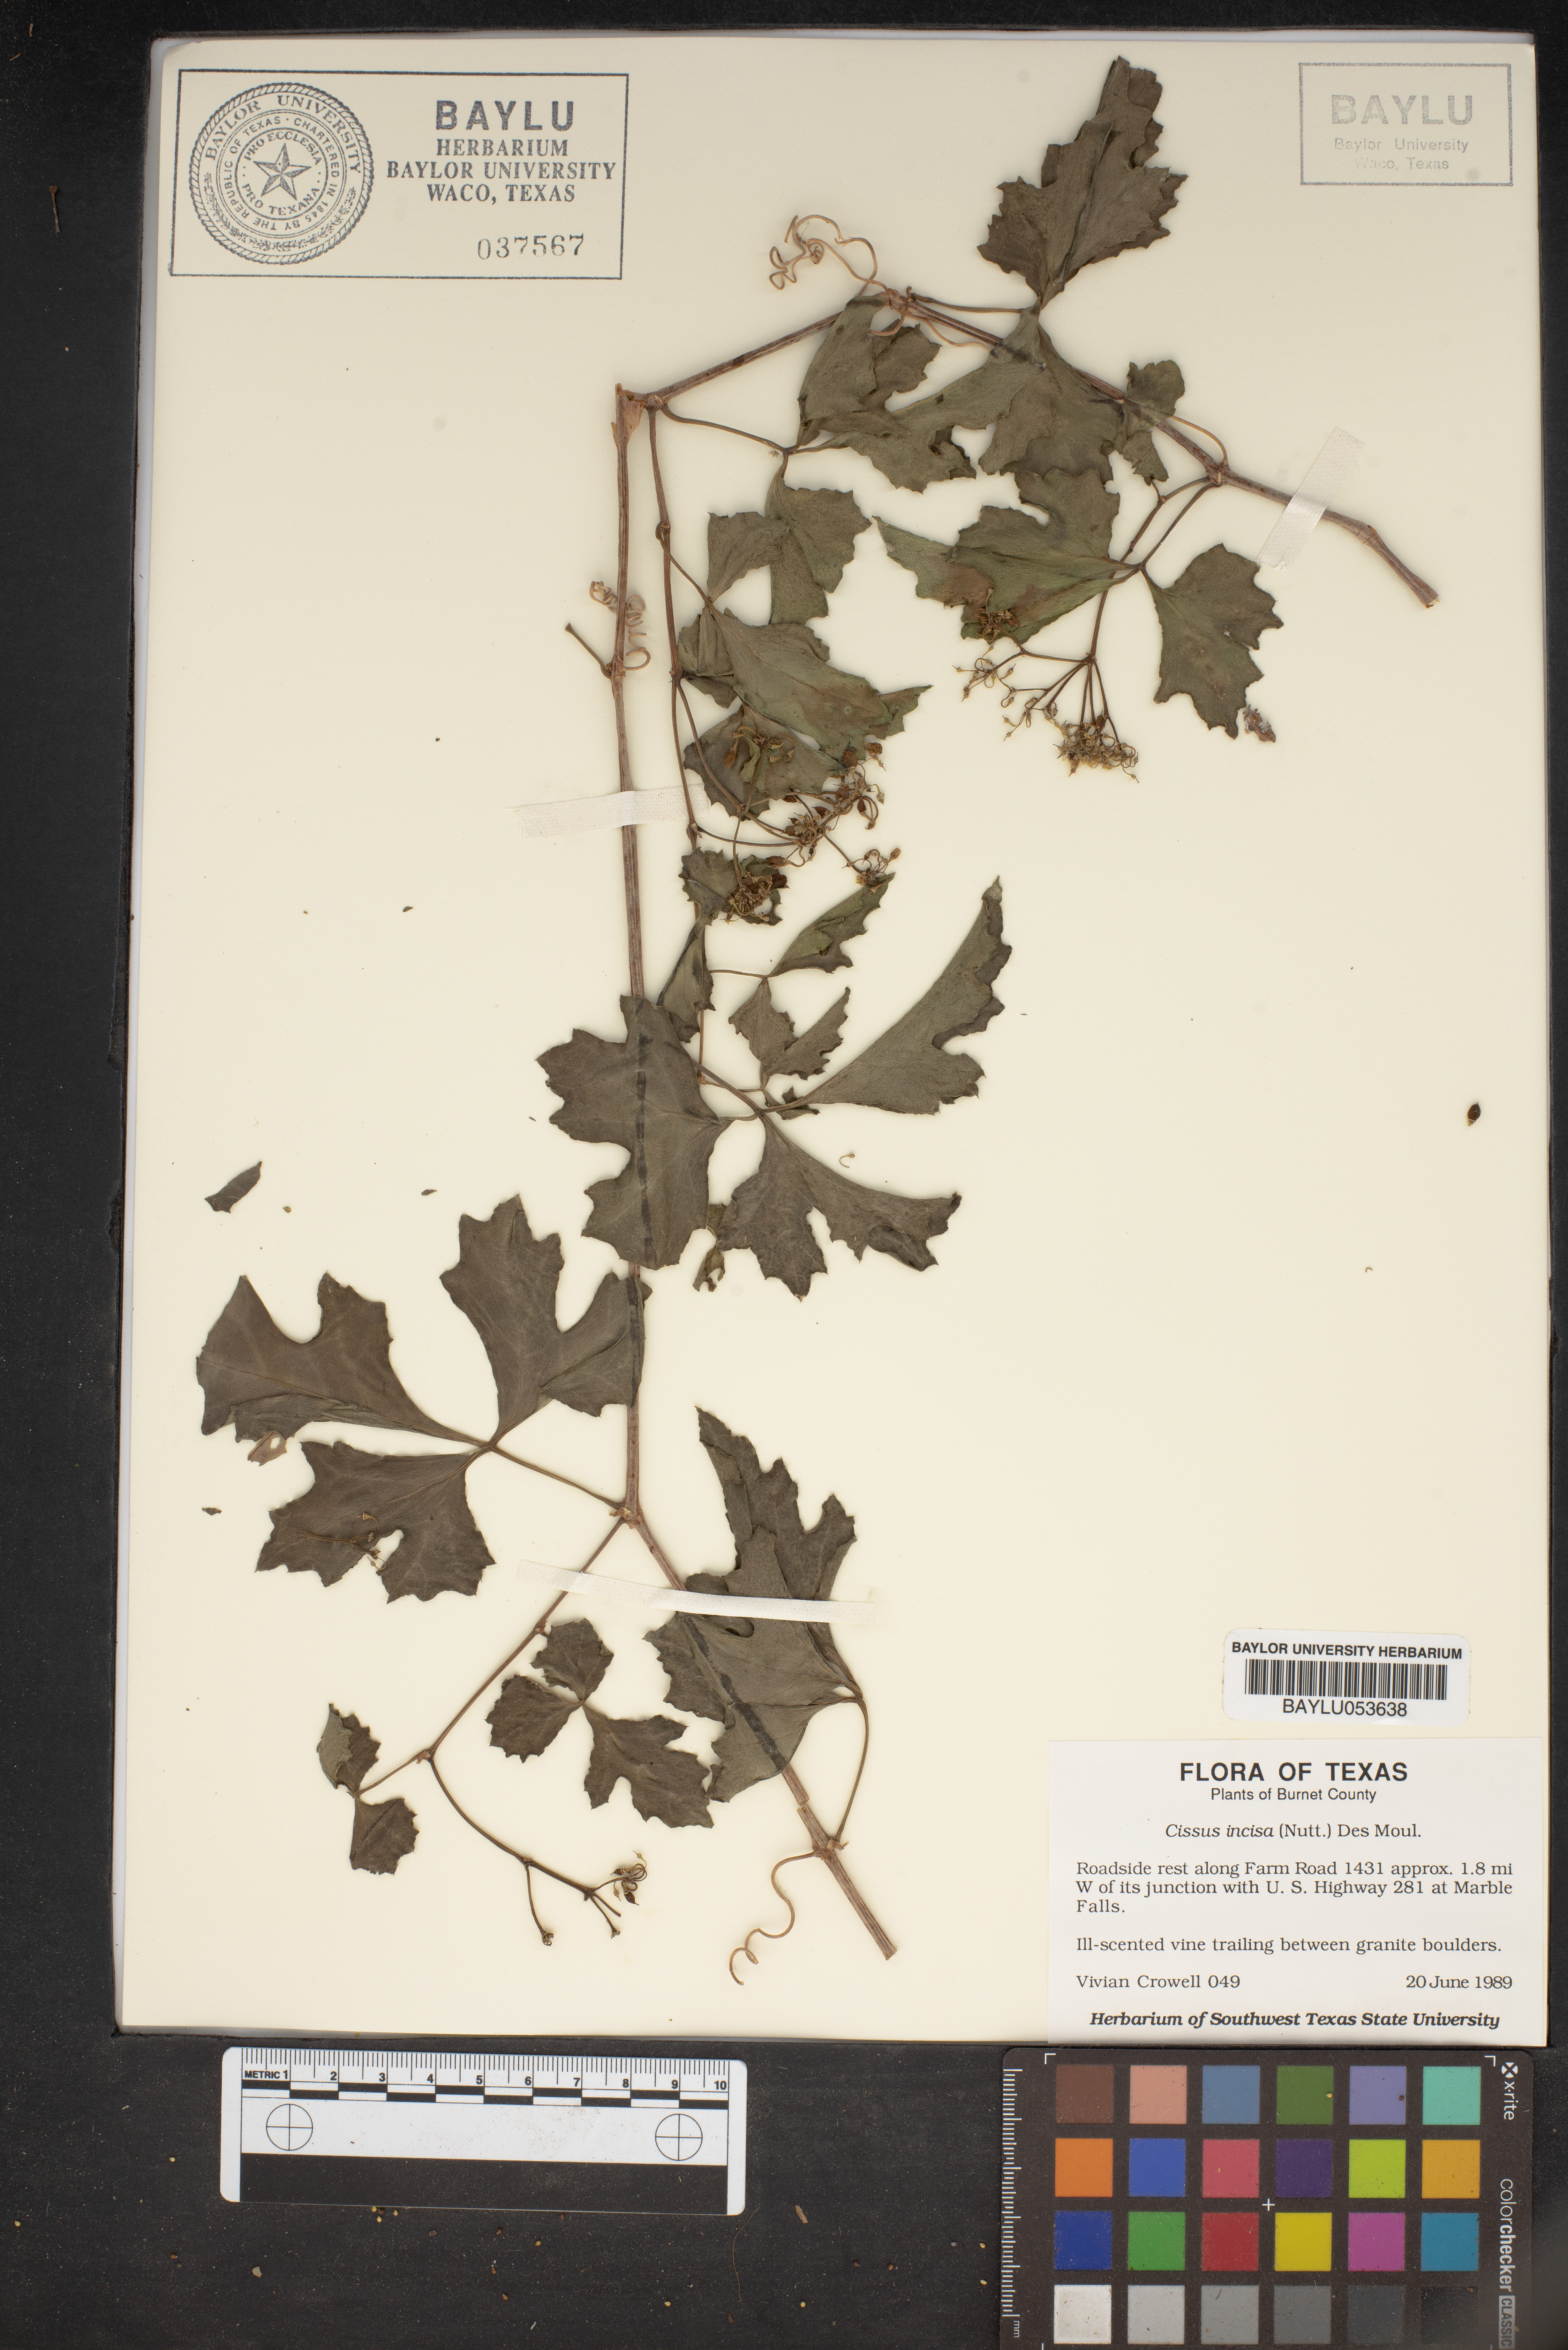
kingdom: Plantae
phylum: Tracheophyta
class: Magnoliopsida
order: Vitales
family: Vitaceae
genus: Cissus
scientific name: Cissus trifoliata
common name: Vine-sorrel
